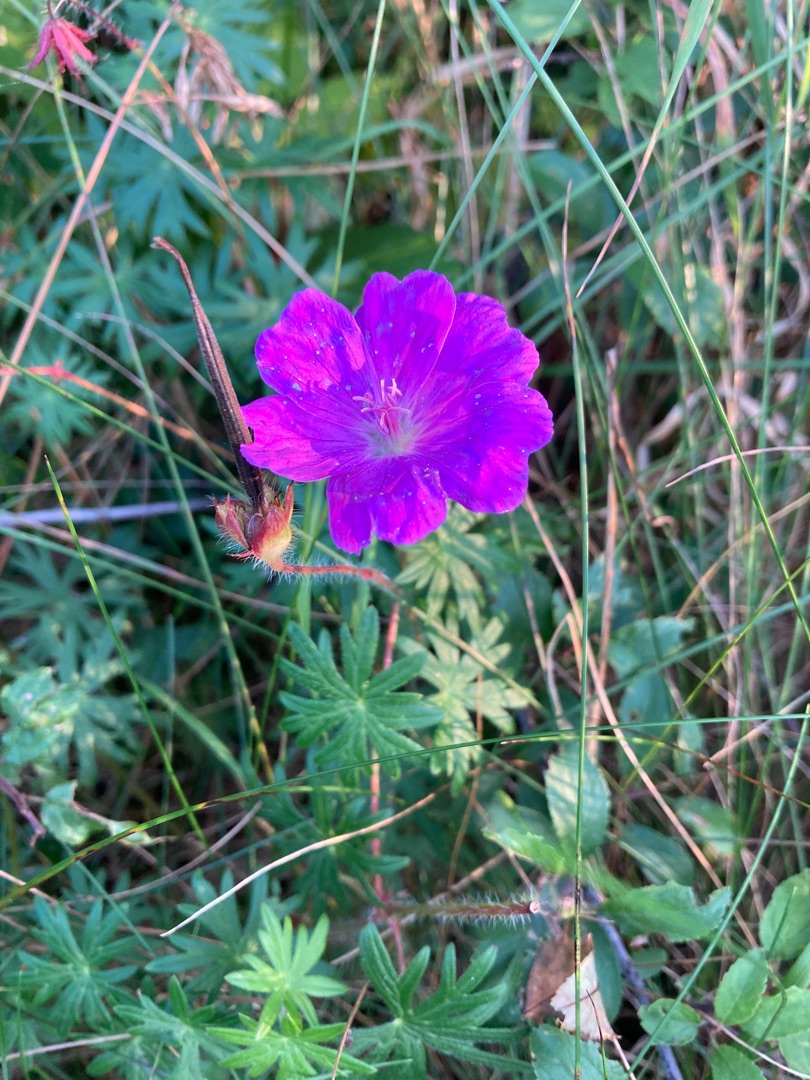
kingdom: Plantae
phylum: Tracheophyta
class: Magnoliopsida
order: Geraniales
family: Geraniaceae
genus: Geranium
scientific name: Geranium sanguineum
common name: Blodrød storkenæb
